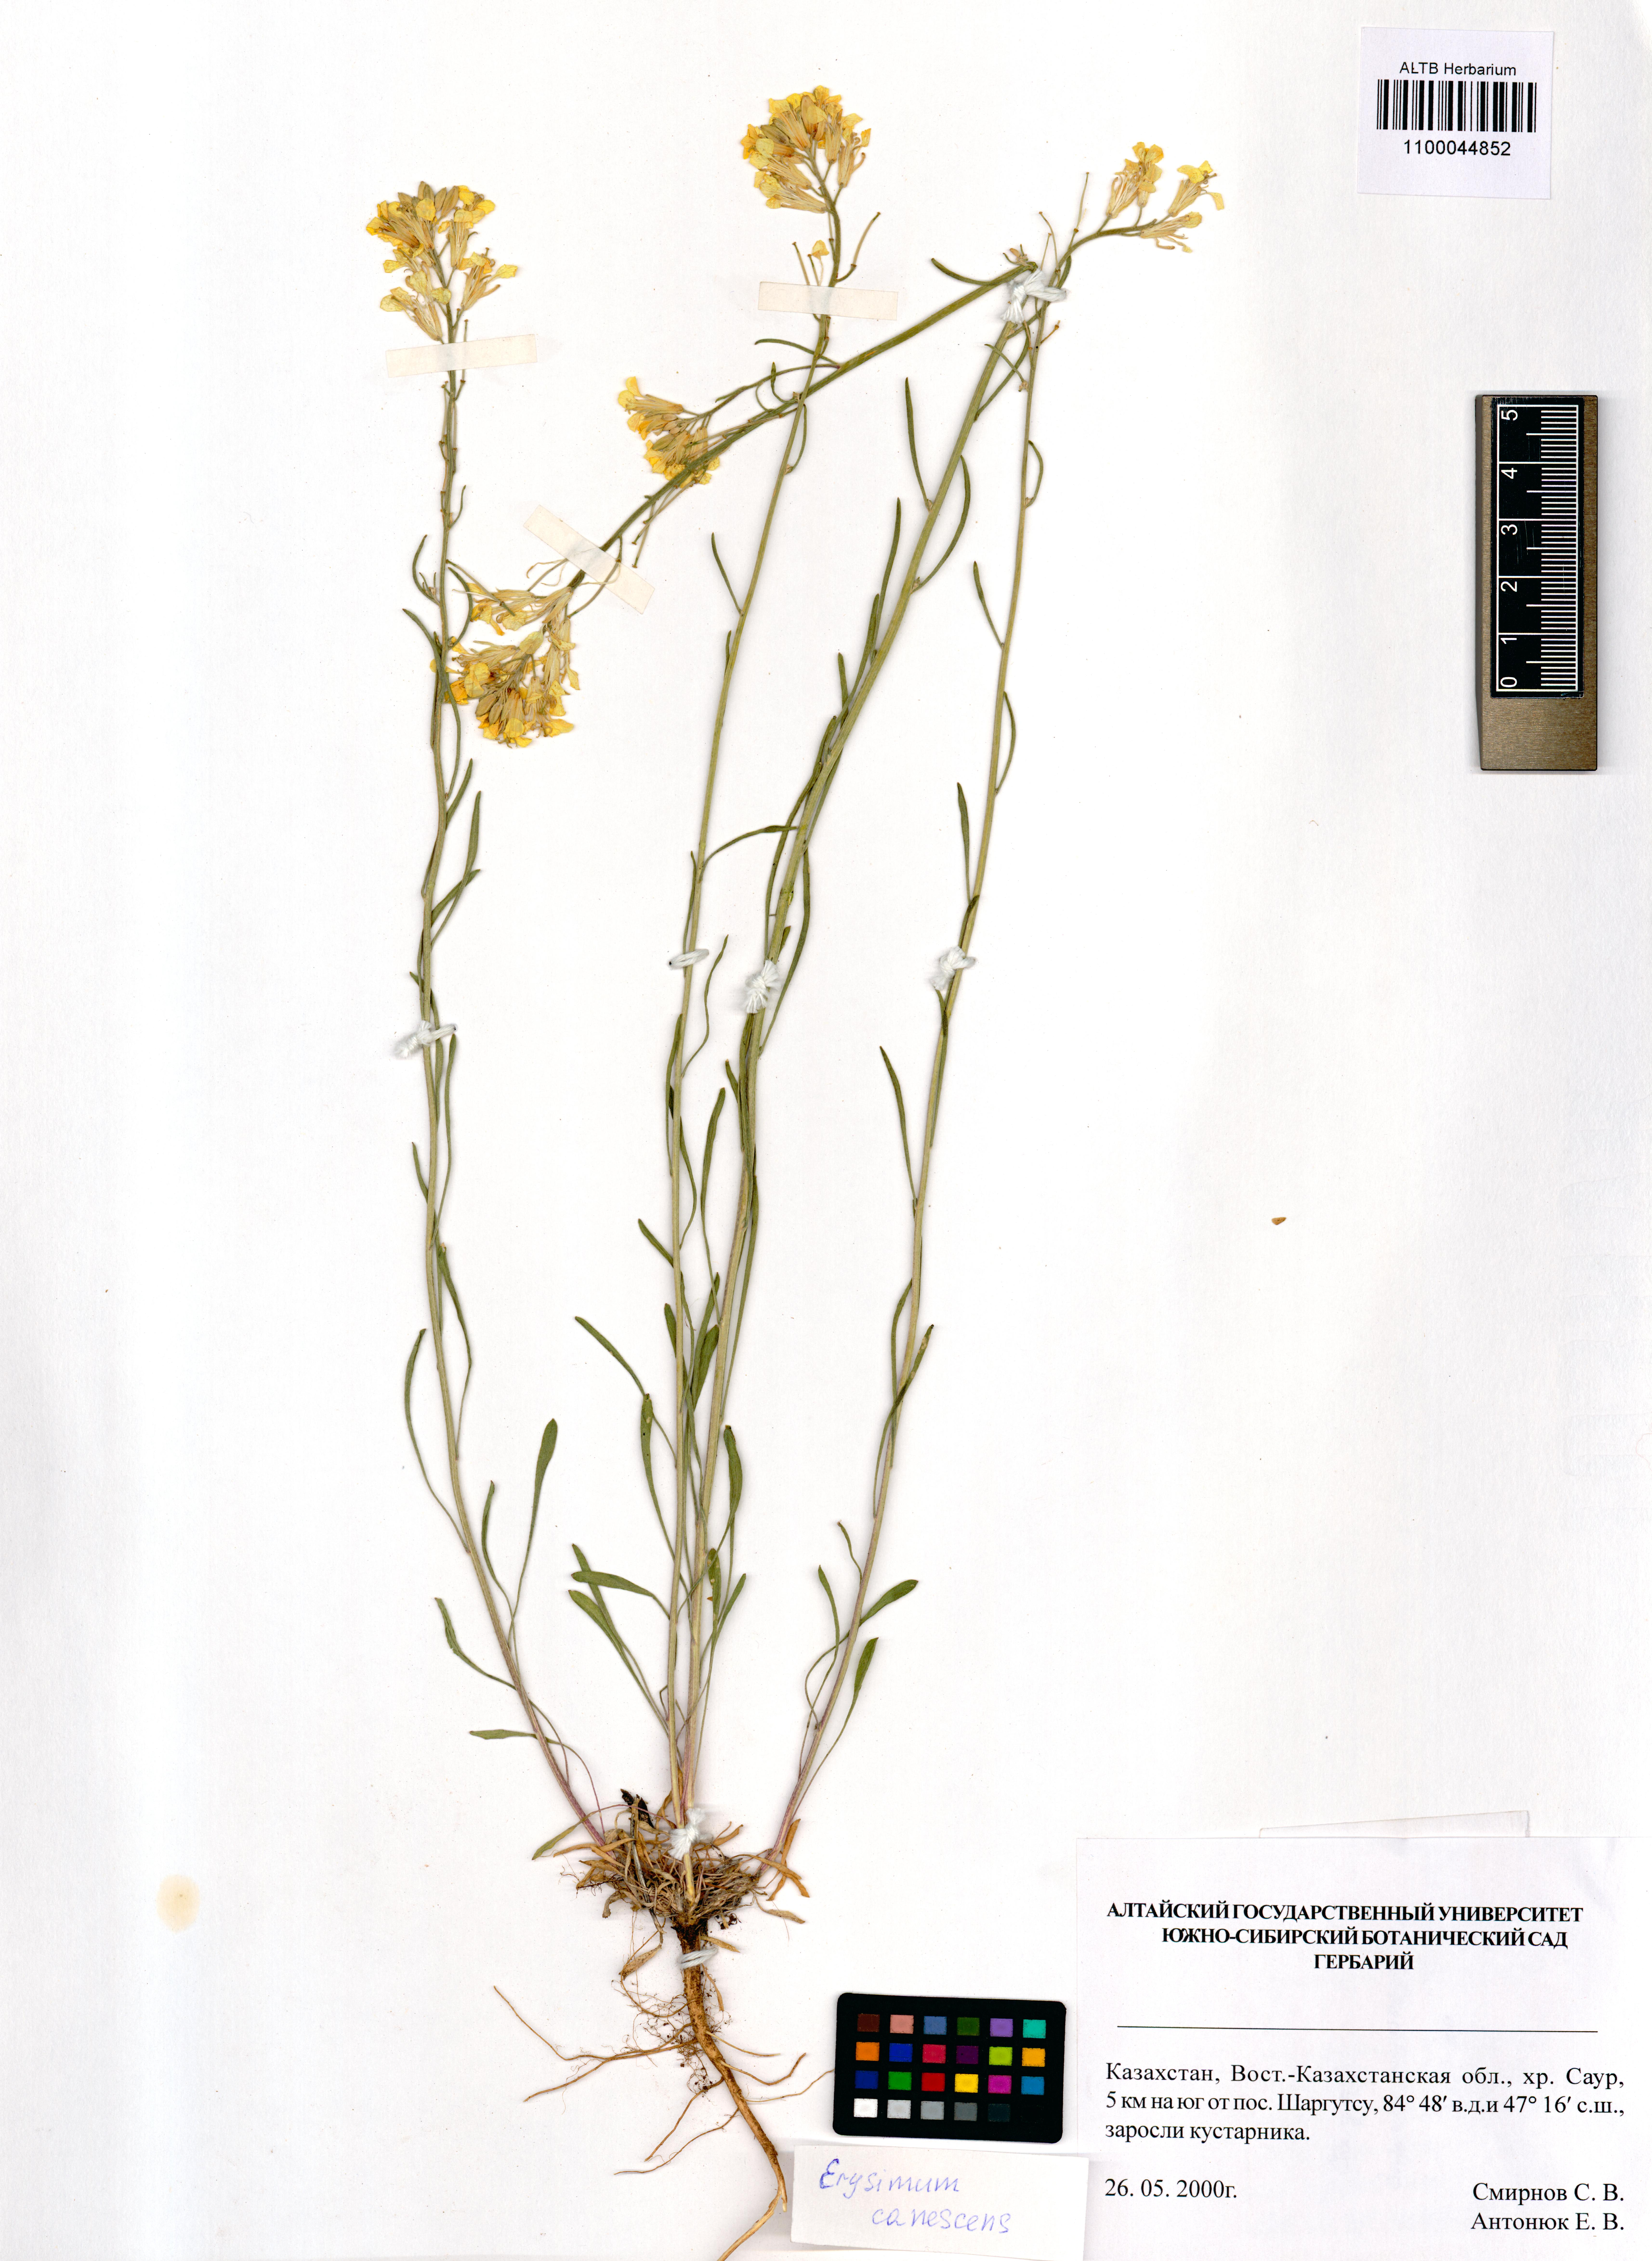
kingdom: Plantae
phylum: Tracheophyta
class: Magnoliopsida
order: Brassicales
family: Brassicaceae
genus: Erysimum
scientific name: Erysimum canescens
